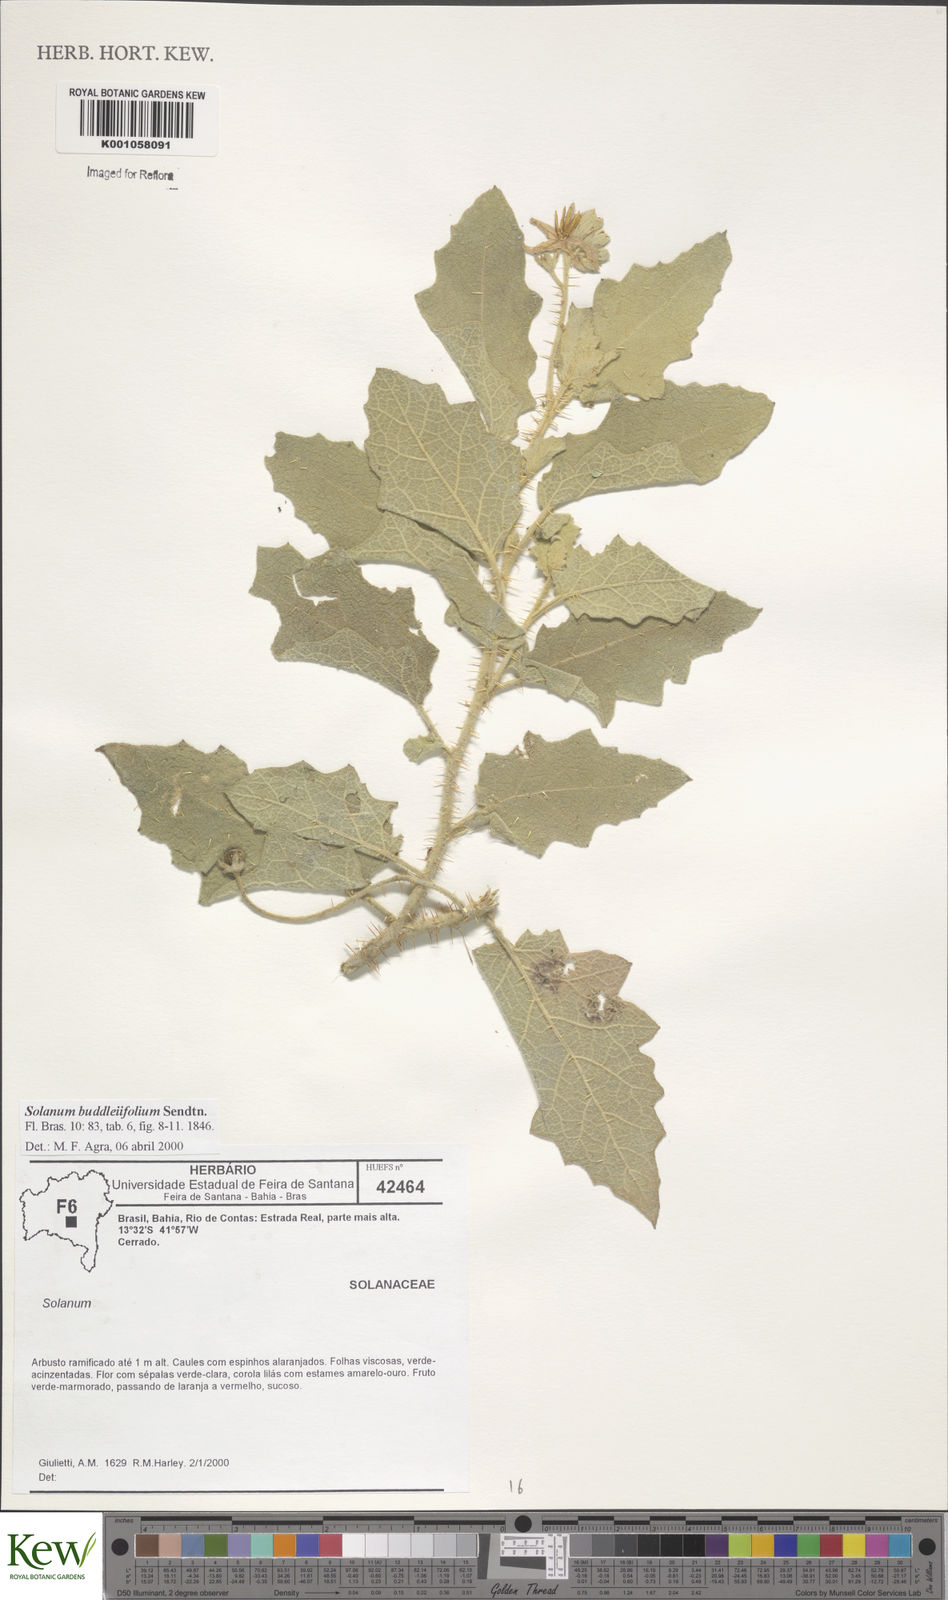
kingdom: Plantae
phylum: Tracheophyta
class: Magnoliopsida
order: Solanales
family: Solanaceae
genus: Solanum
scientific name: Solanum buddlejifolium
